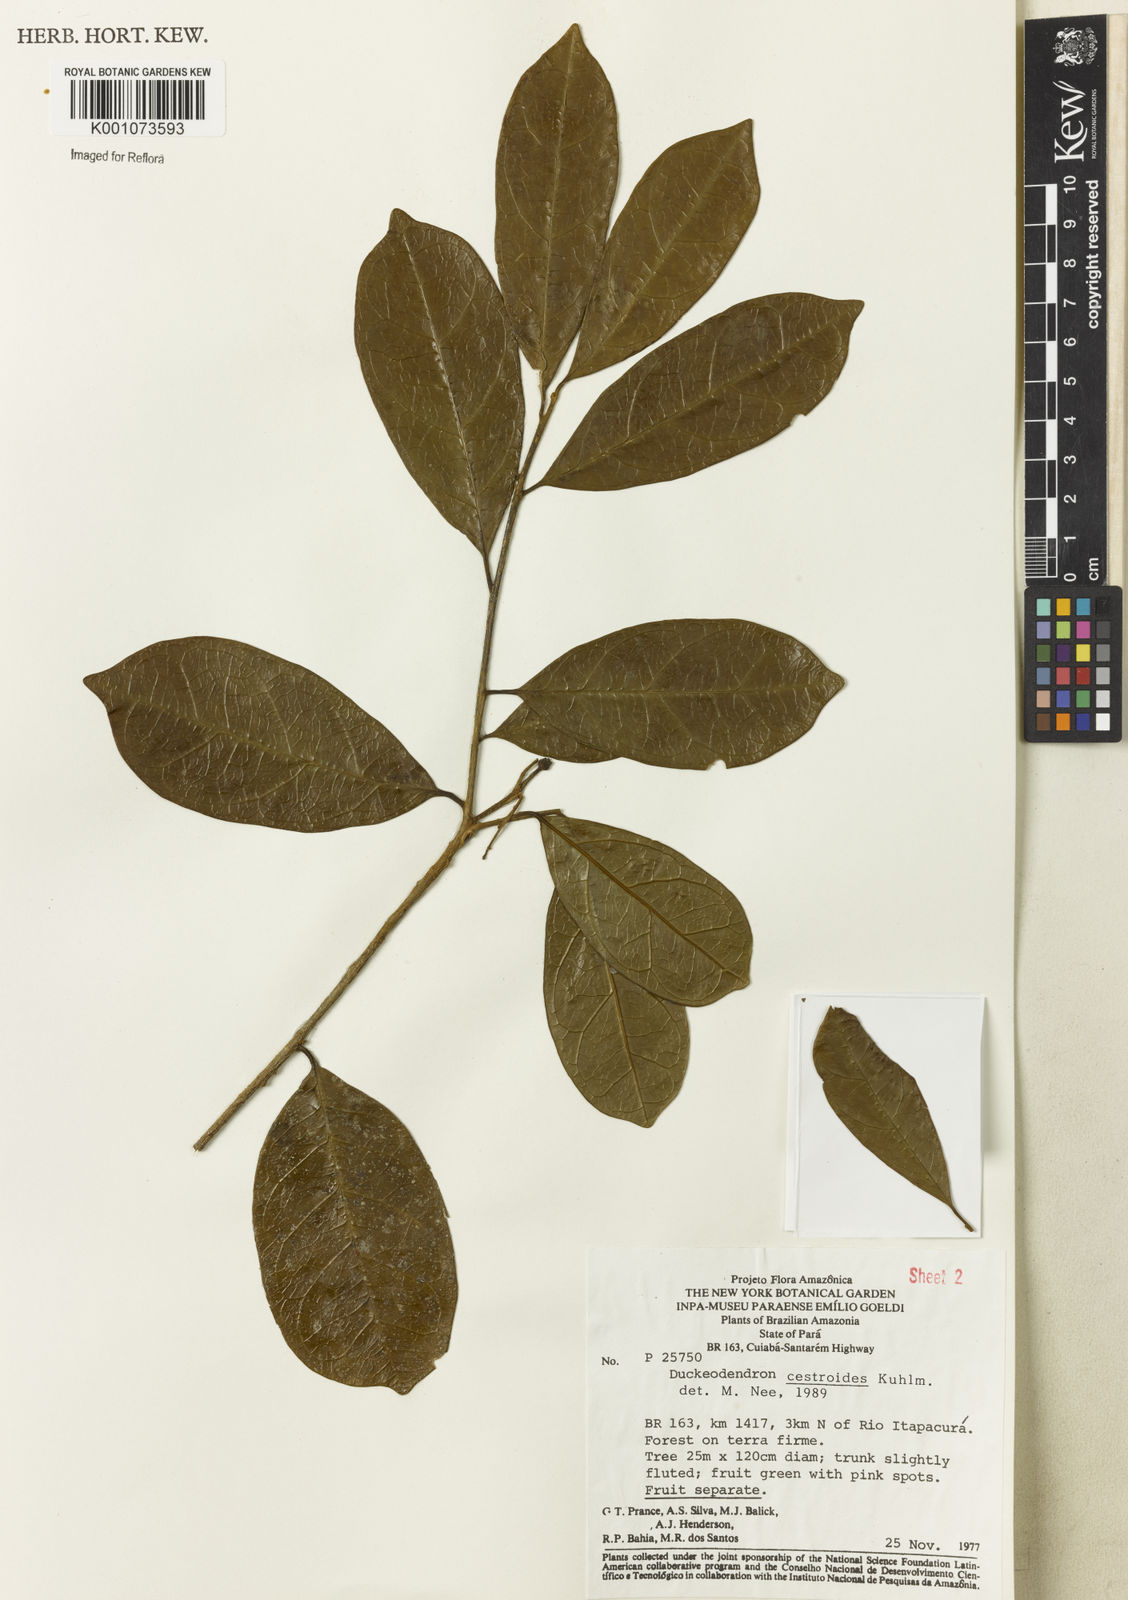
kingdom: Plantae
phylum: Tracheophyta
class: Magnoliopsida
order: Solanales
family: Solanaceae
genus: Duckeodendron
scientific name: Duckeodendron cestroides
